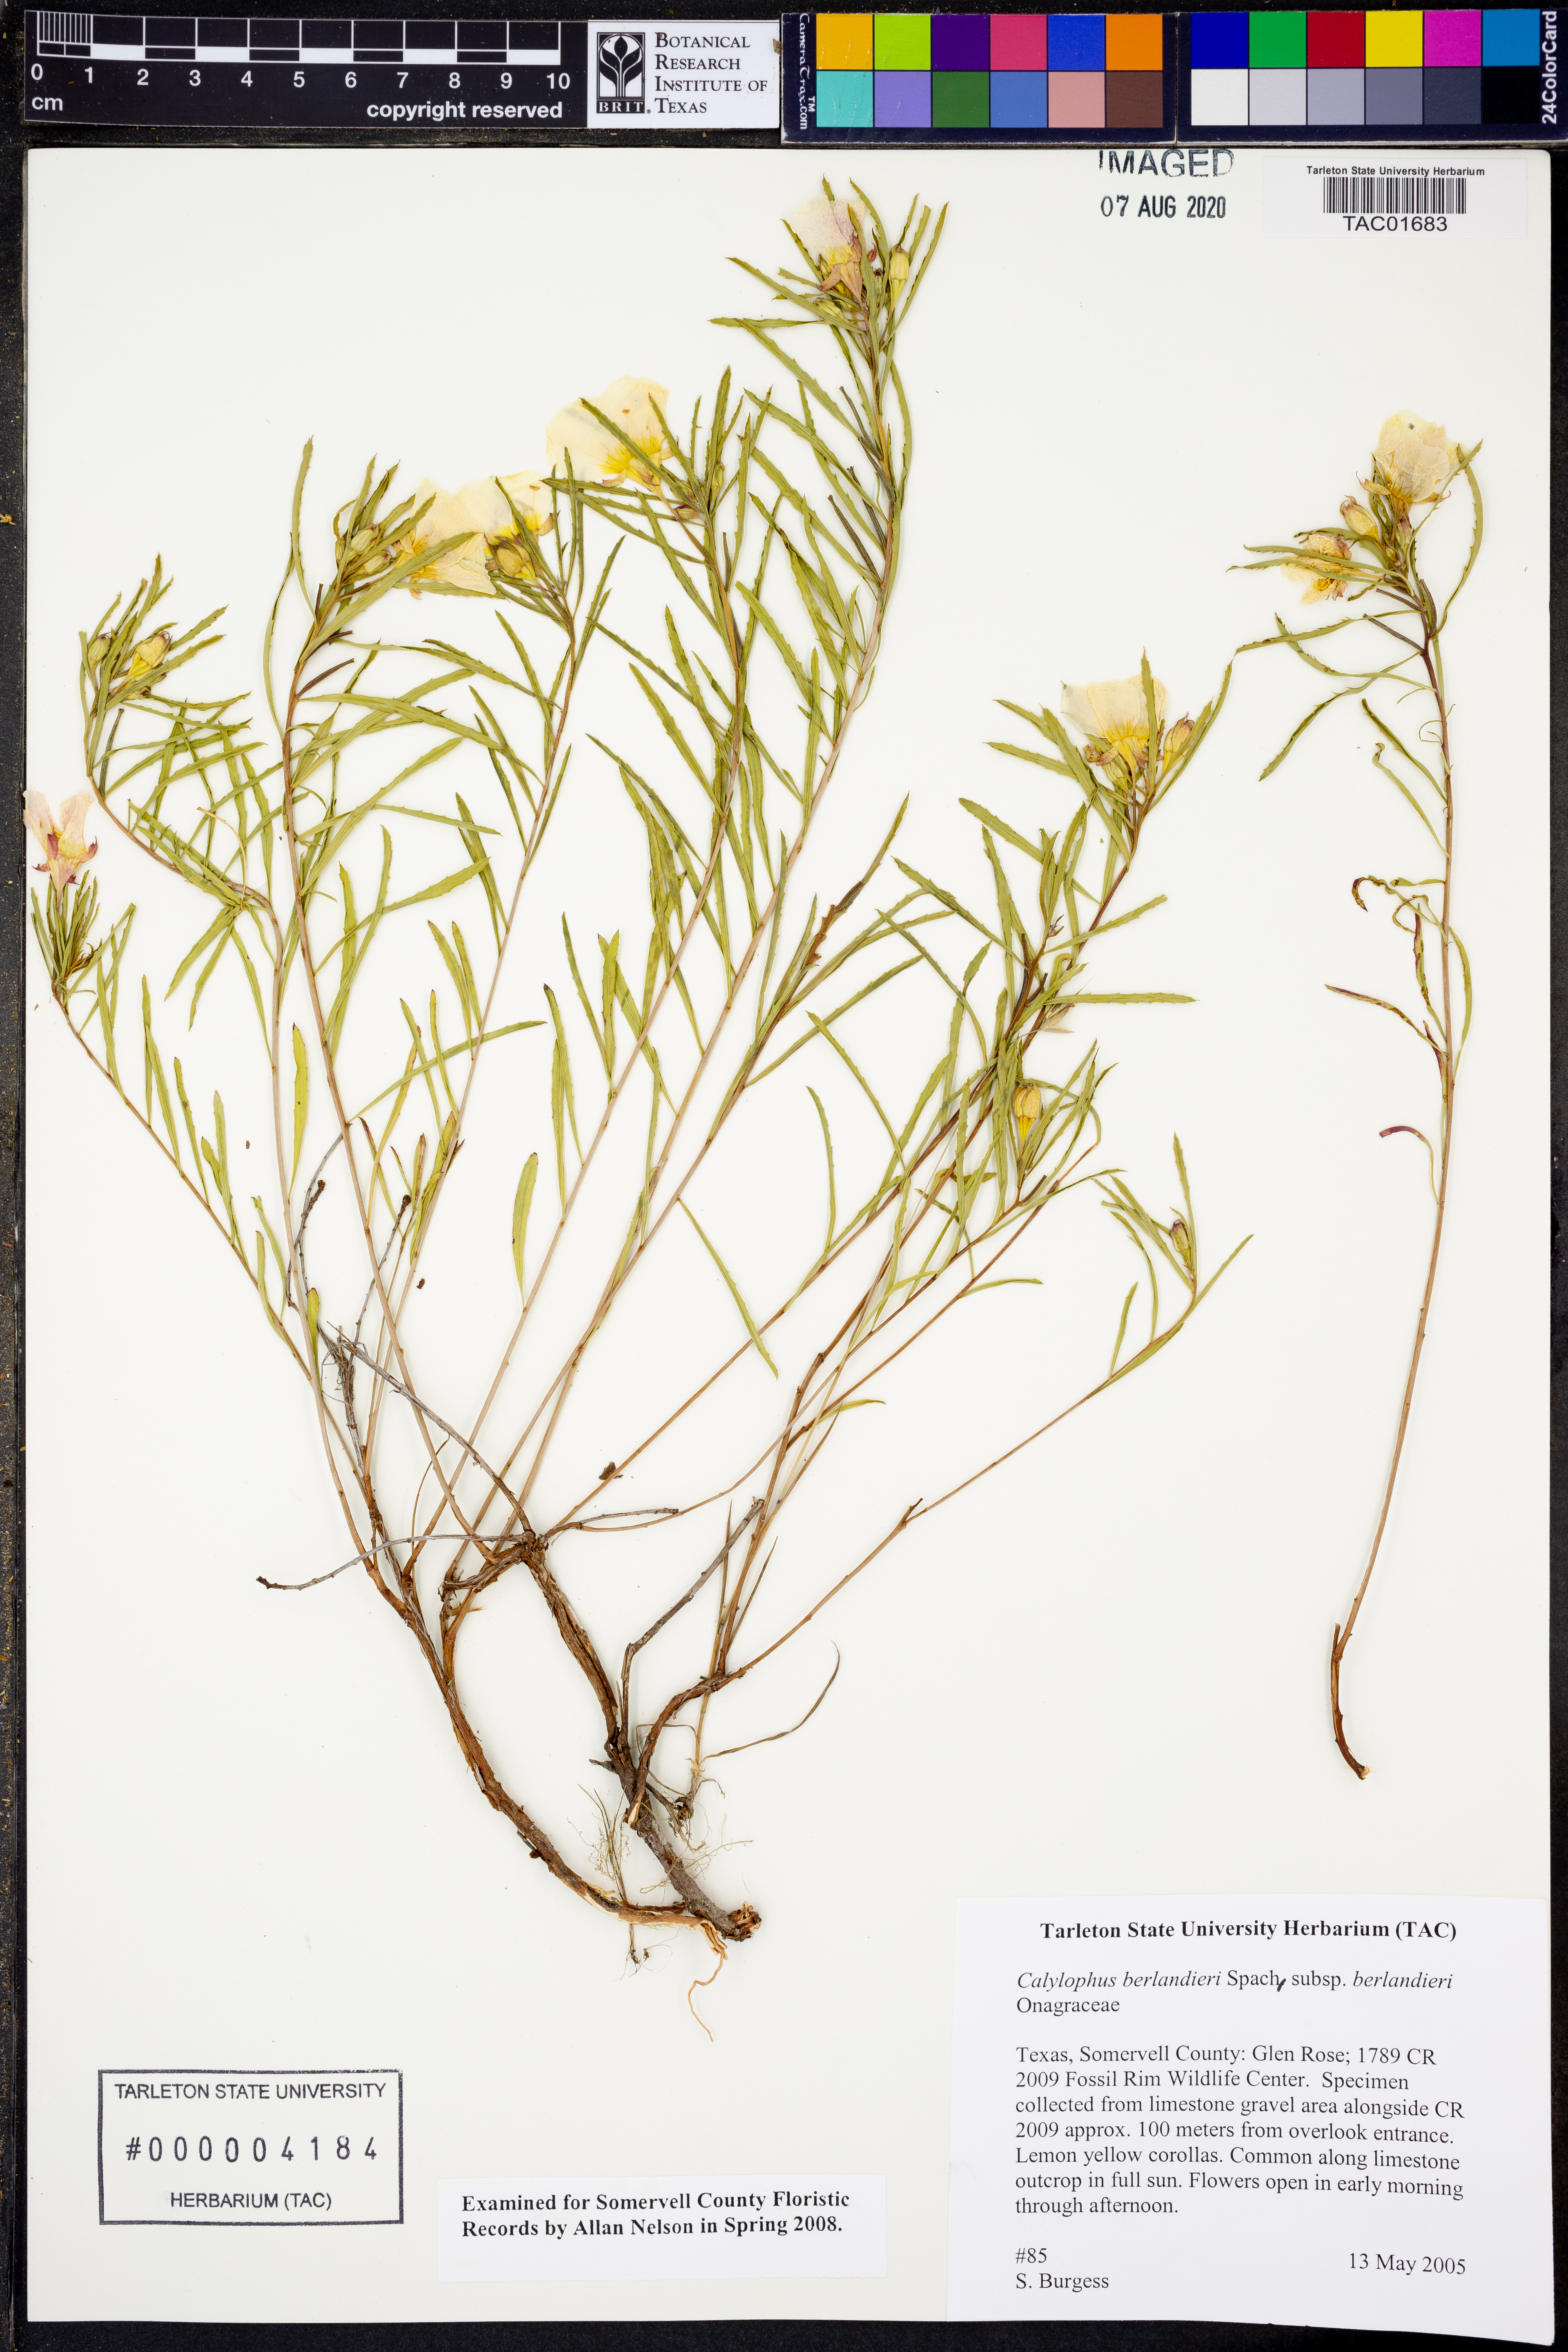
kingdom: Plantae
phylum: Tracheophyta
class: Magnoliopsida
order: Myrtales
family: Onagraceae
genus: Oenothera
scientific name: Oenothera capillifolia
